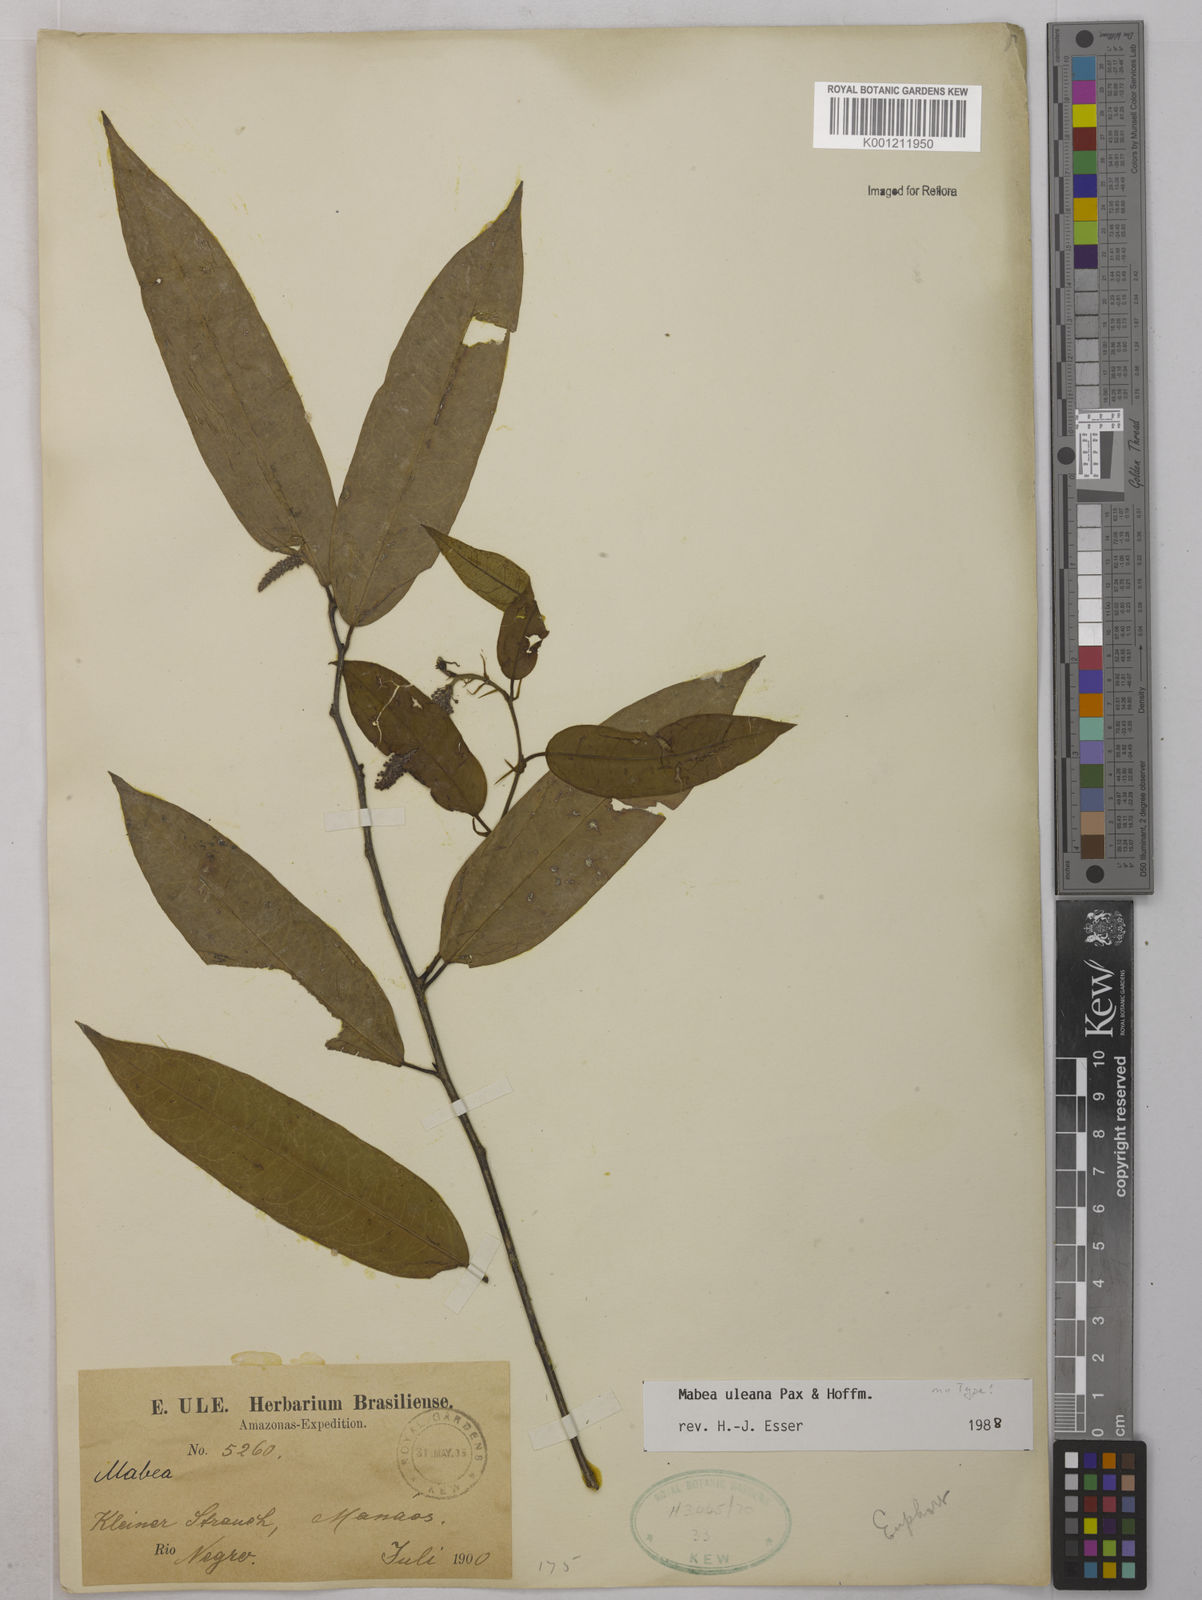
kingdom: Plantae
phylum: Tracheophyta
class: Magnoliopsida
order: Malpighiales
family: Euphorbiaceae
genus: Mabea
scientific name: Mabea uleana
